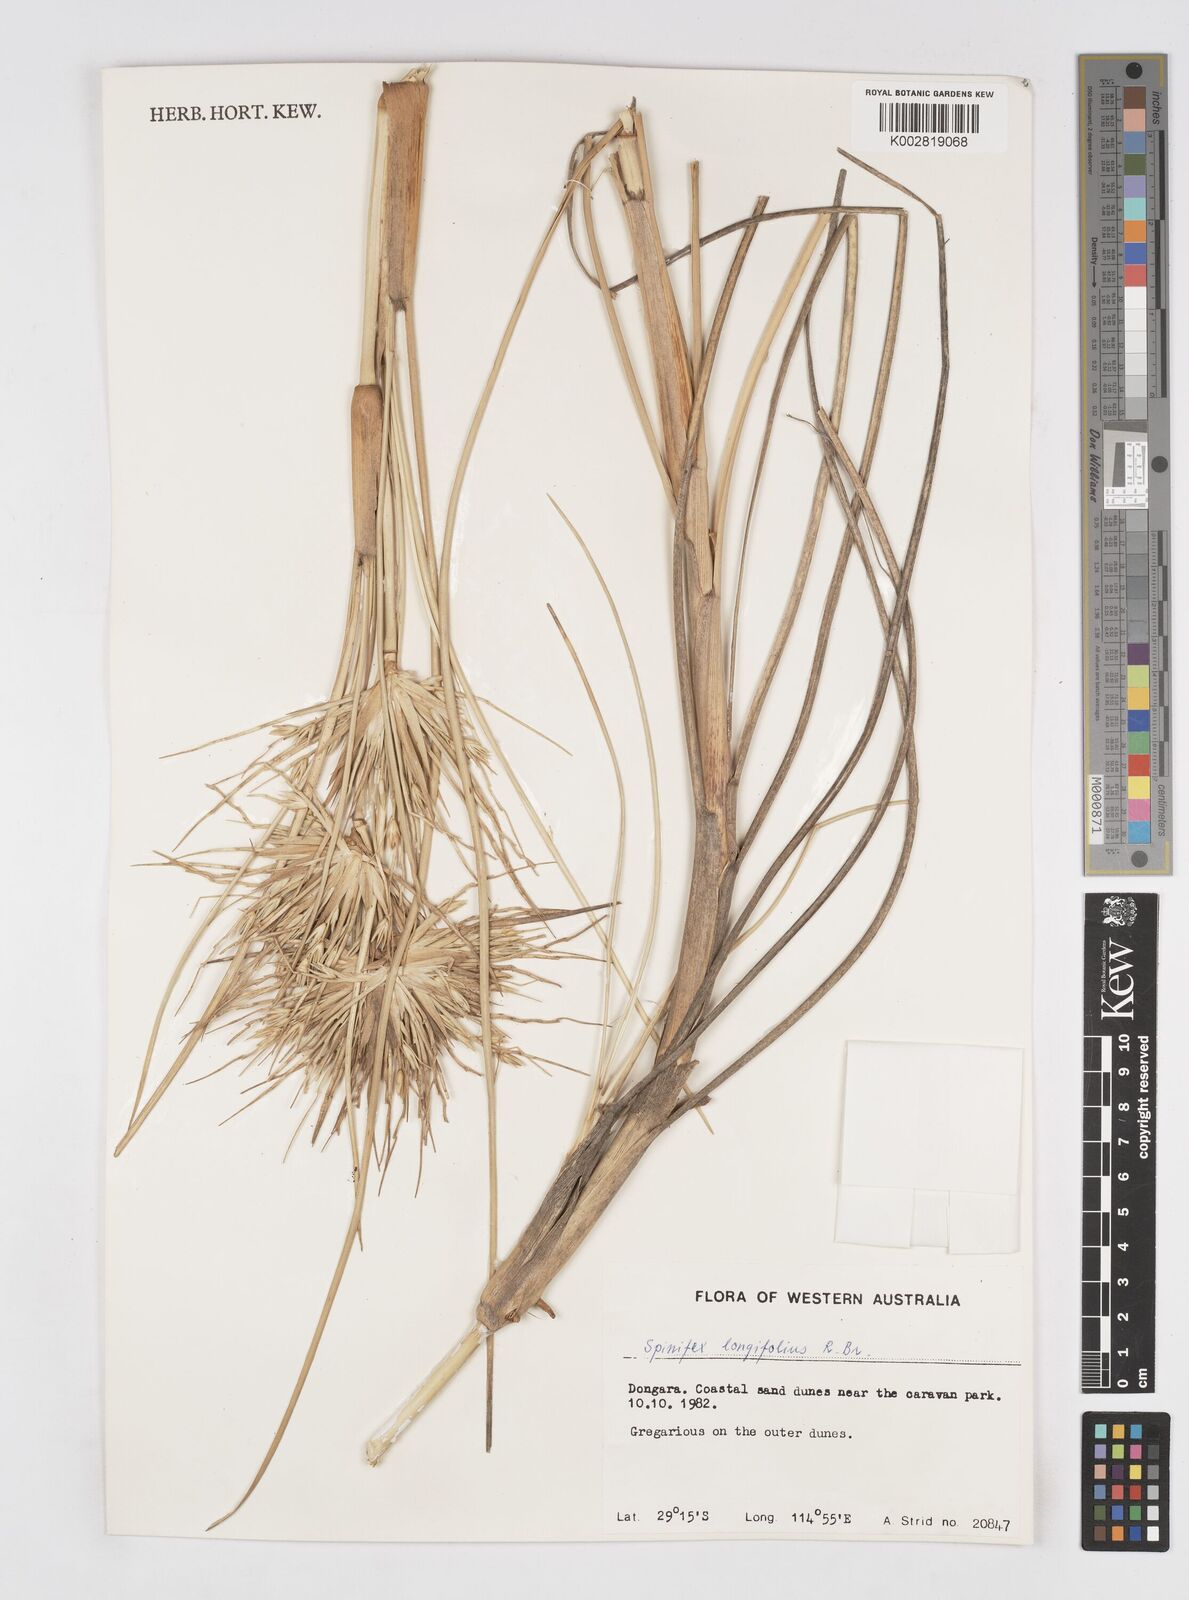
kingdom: Plantae
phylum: Tracheophyta
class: Liliopsida
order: Poales
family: Poaceae
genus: Spinifex
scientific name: Spinifex longifolius
